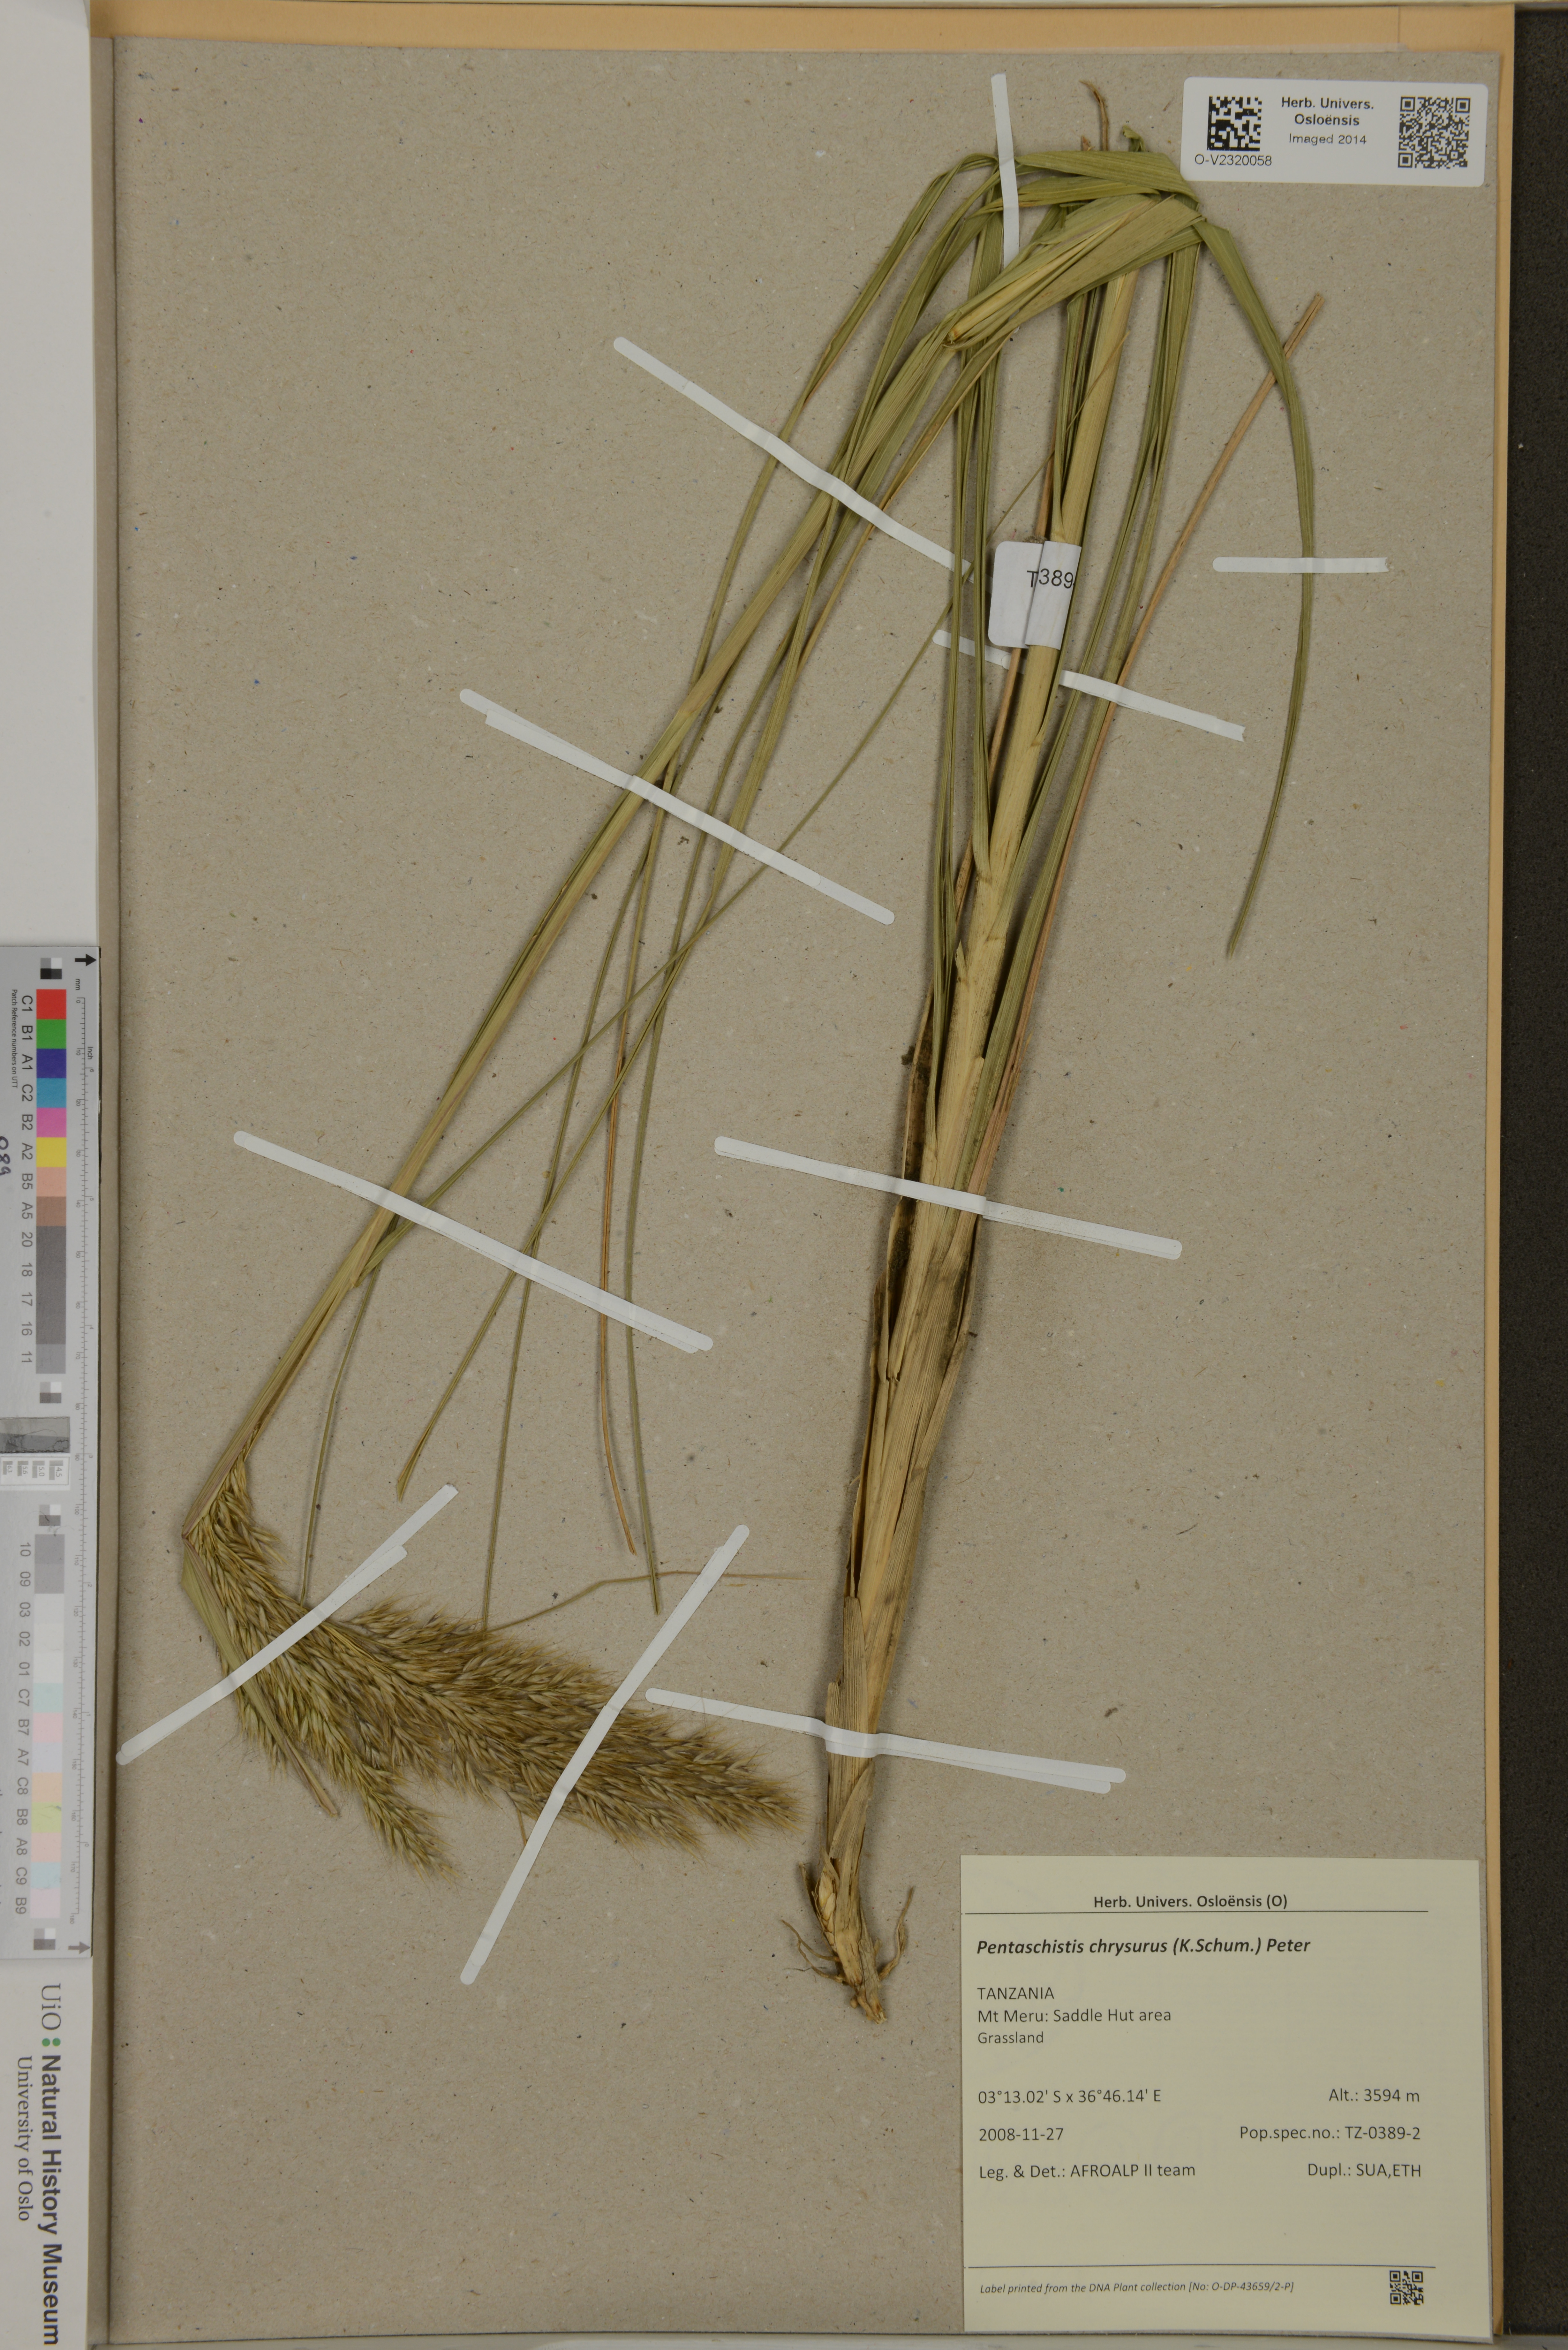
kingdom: Plantae
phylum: Tracheophyta
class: Liliopsida
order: Poales
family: Poaceae
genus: Pentameris
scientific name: Pentameris chrysurus
